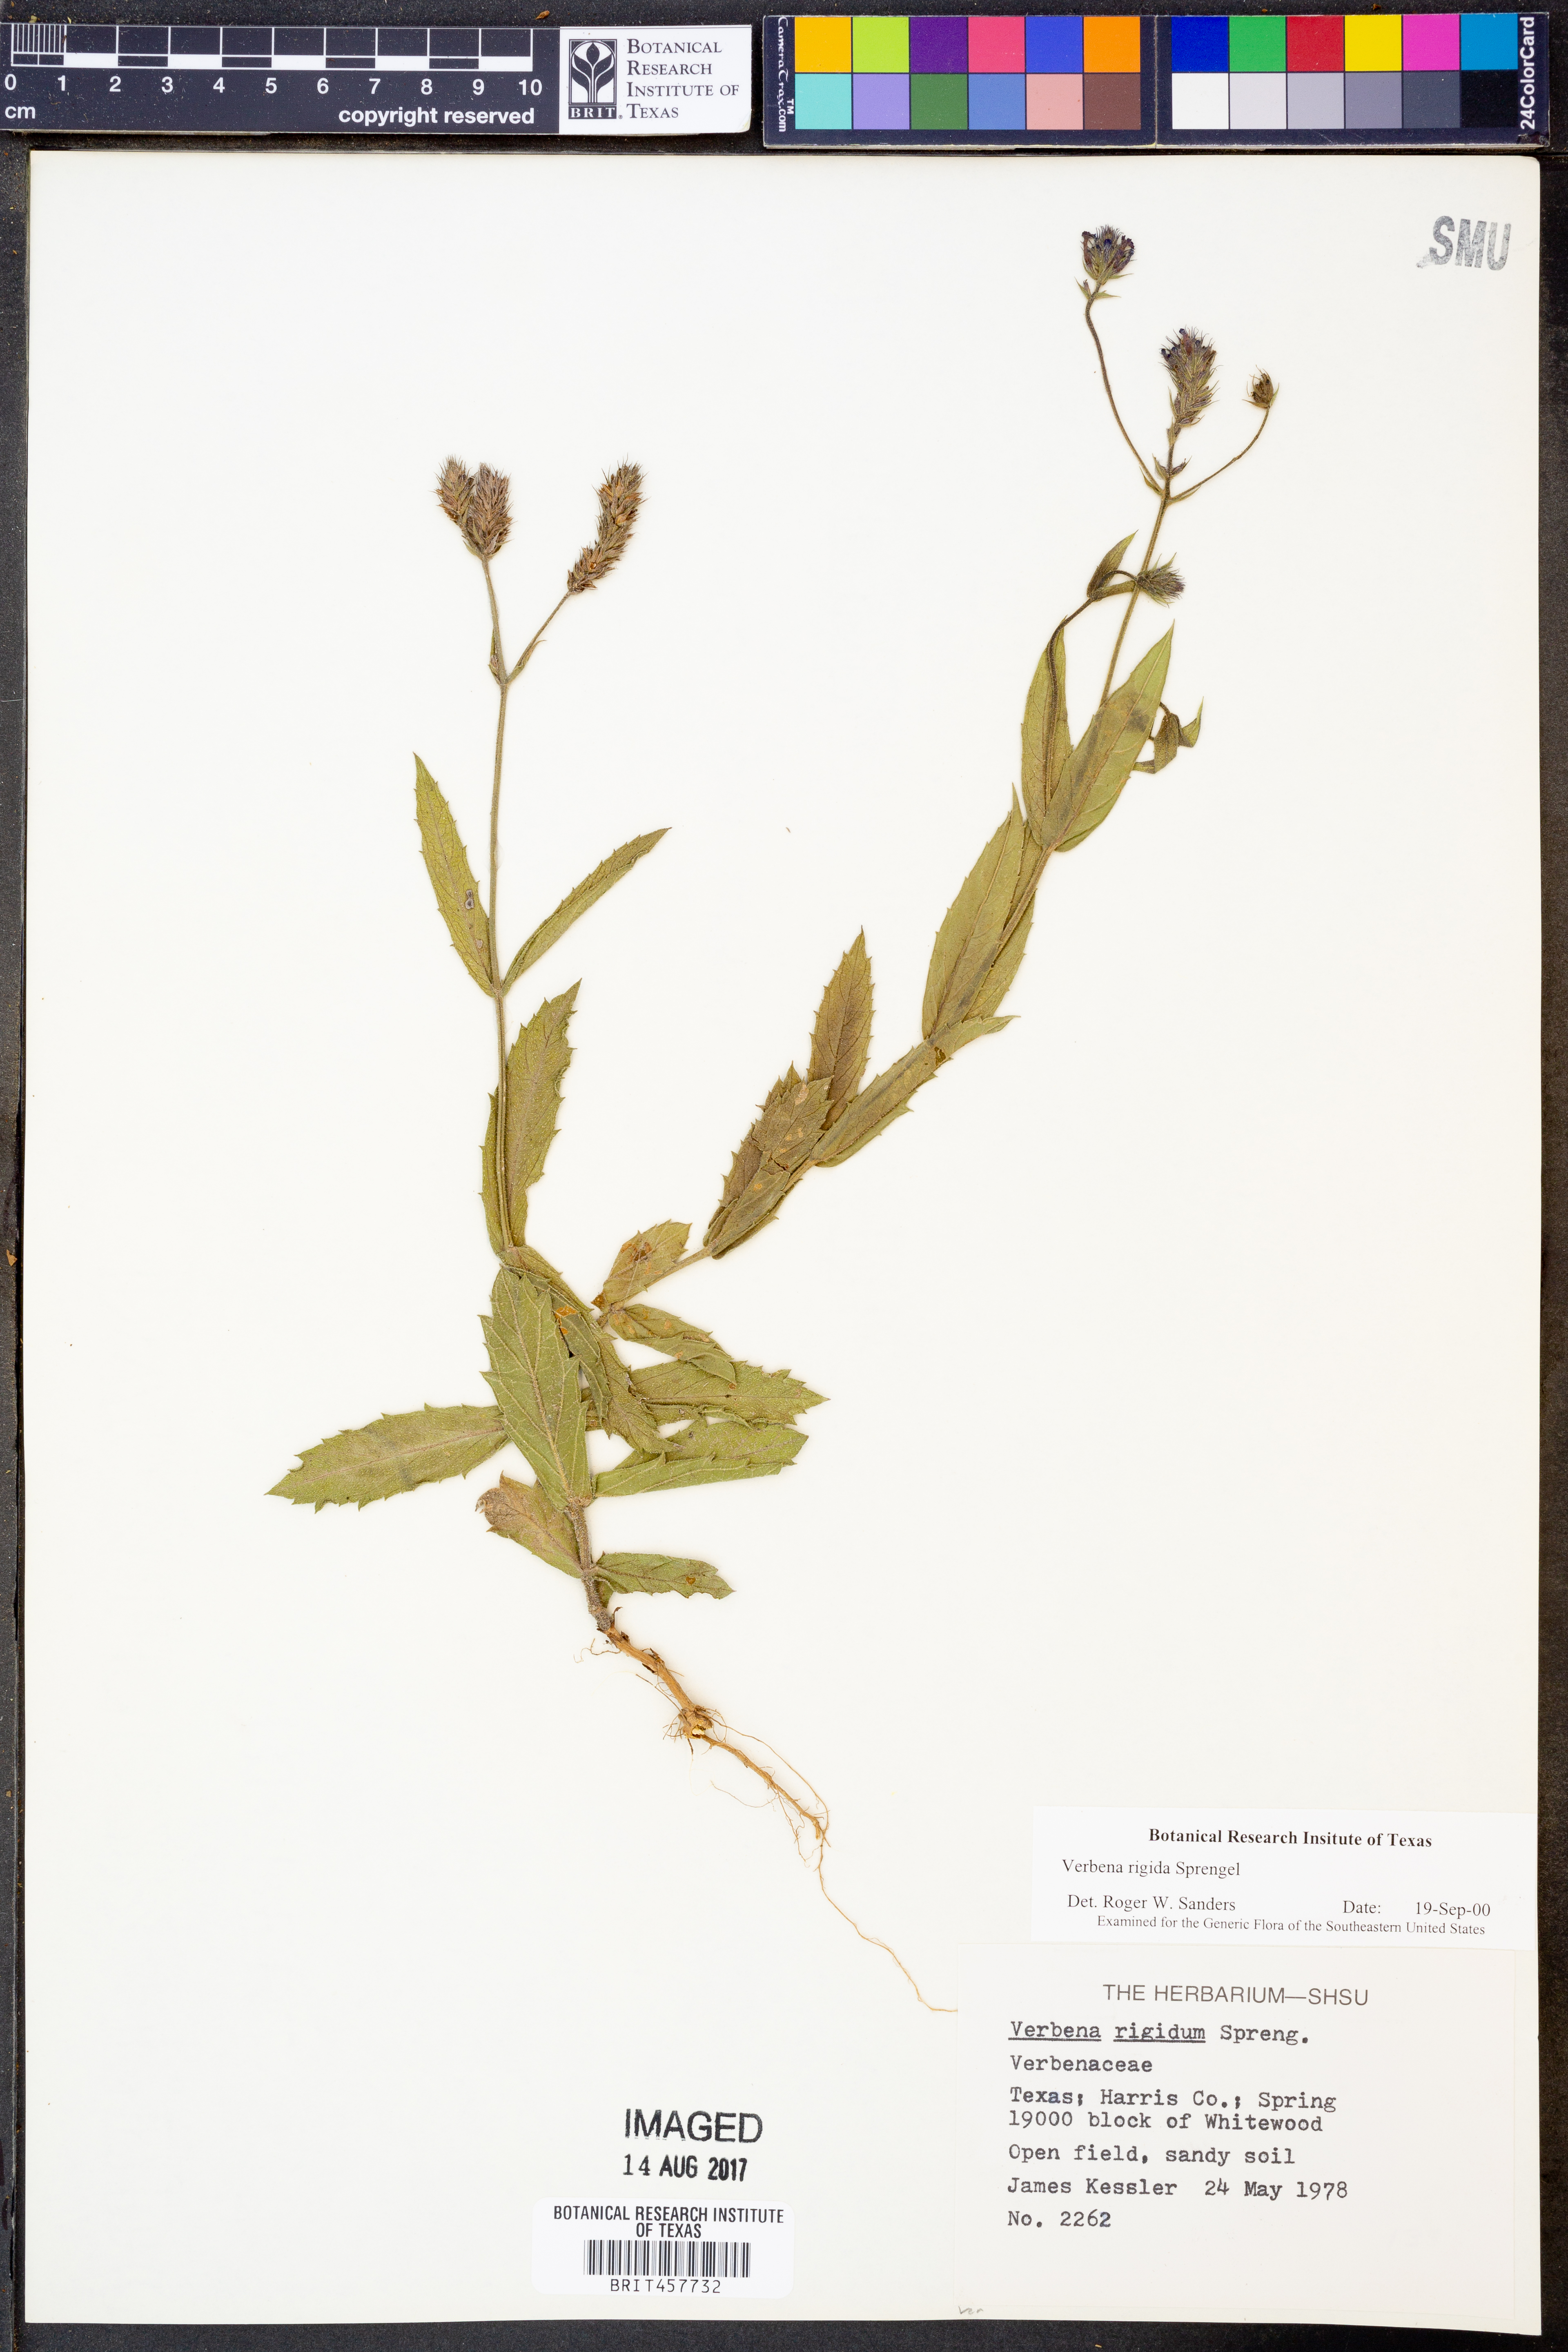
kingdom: Plantae
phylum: Tracheophyta
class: Magnoliopsida
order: Lamiales
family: Verbenaceae
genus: Verbena
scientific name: Verbena rigida
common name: Slender vervain
